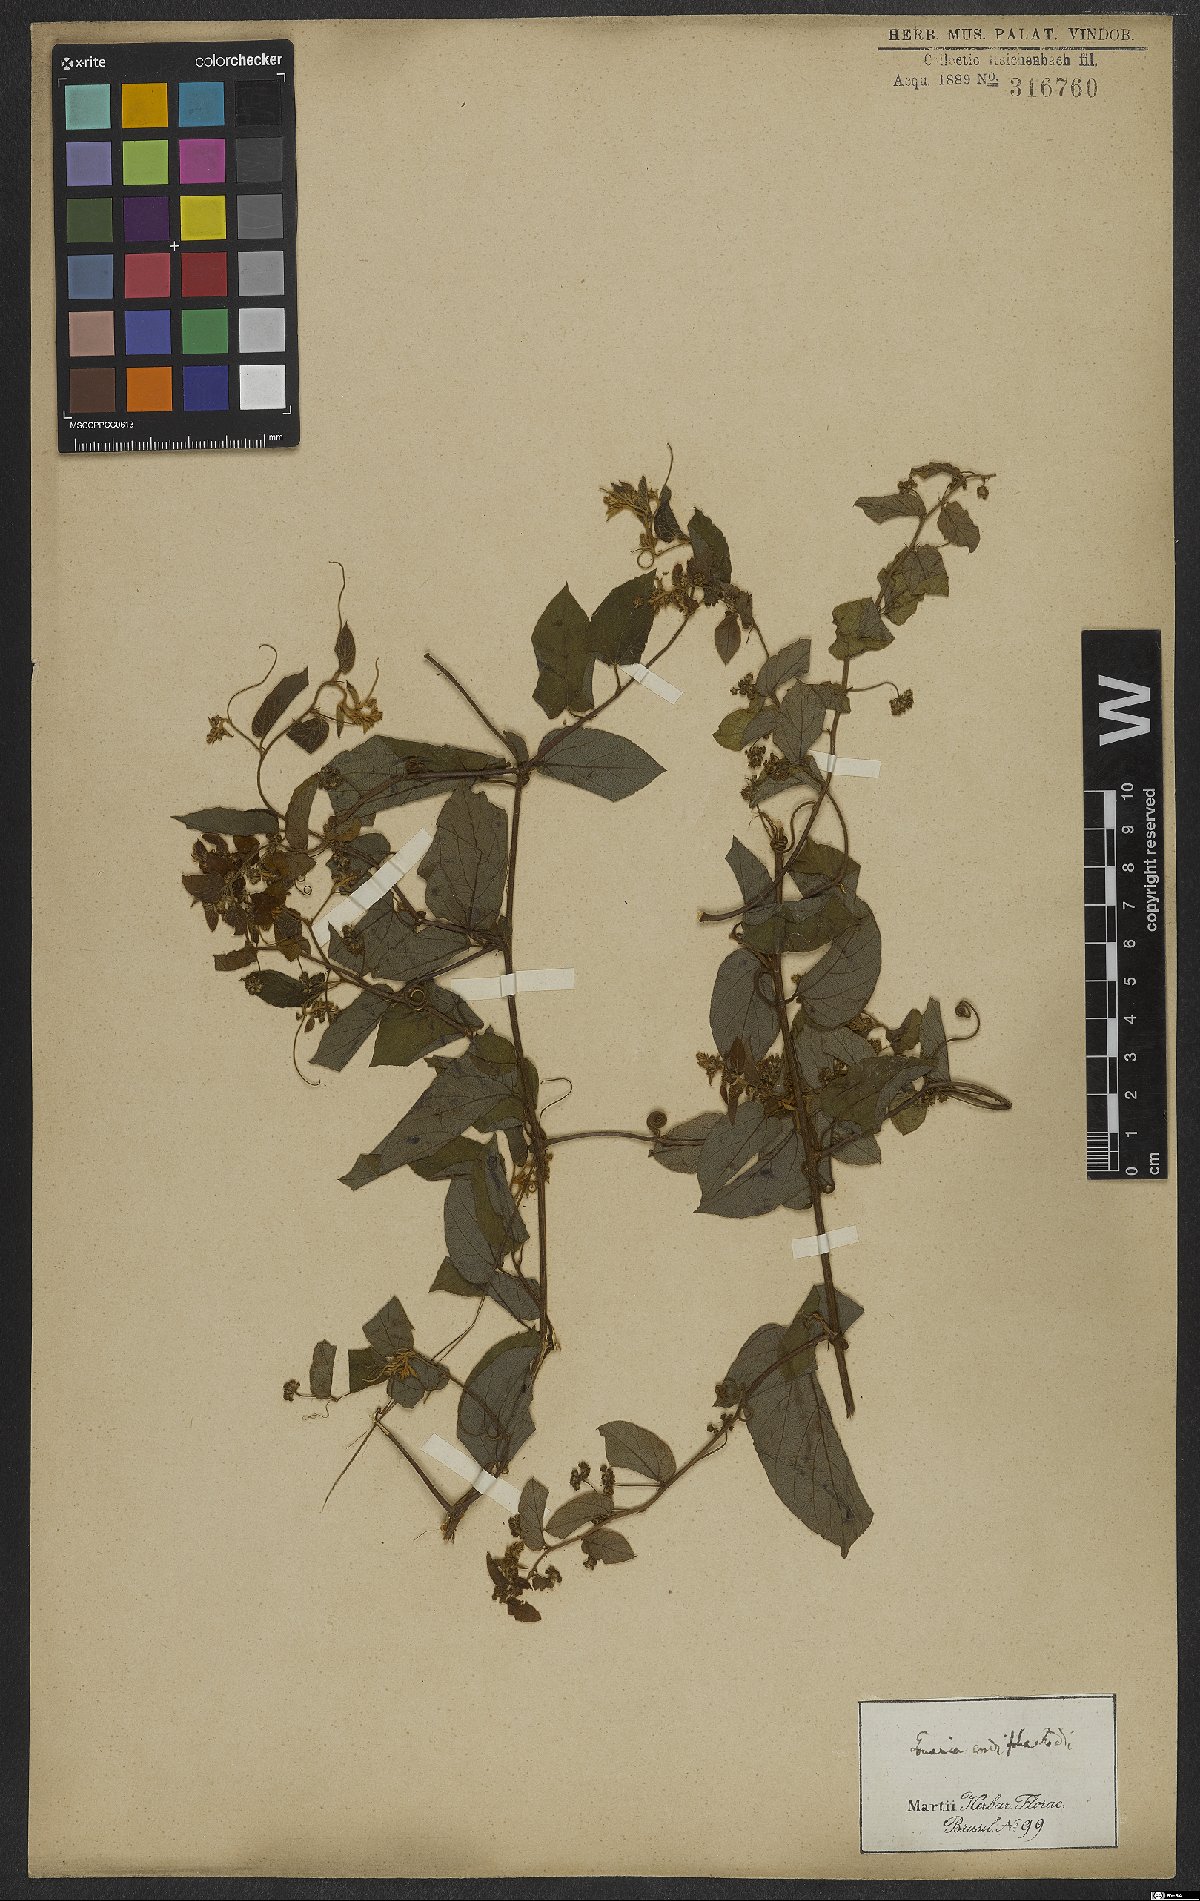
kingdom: Plantae
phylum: Tracheophyta
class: Magnoliopsida
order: Rosales
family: Rhamnaceae
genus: Reissekia
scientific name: Reissekia smilacina
